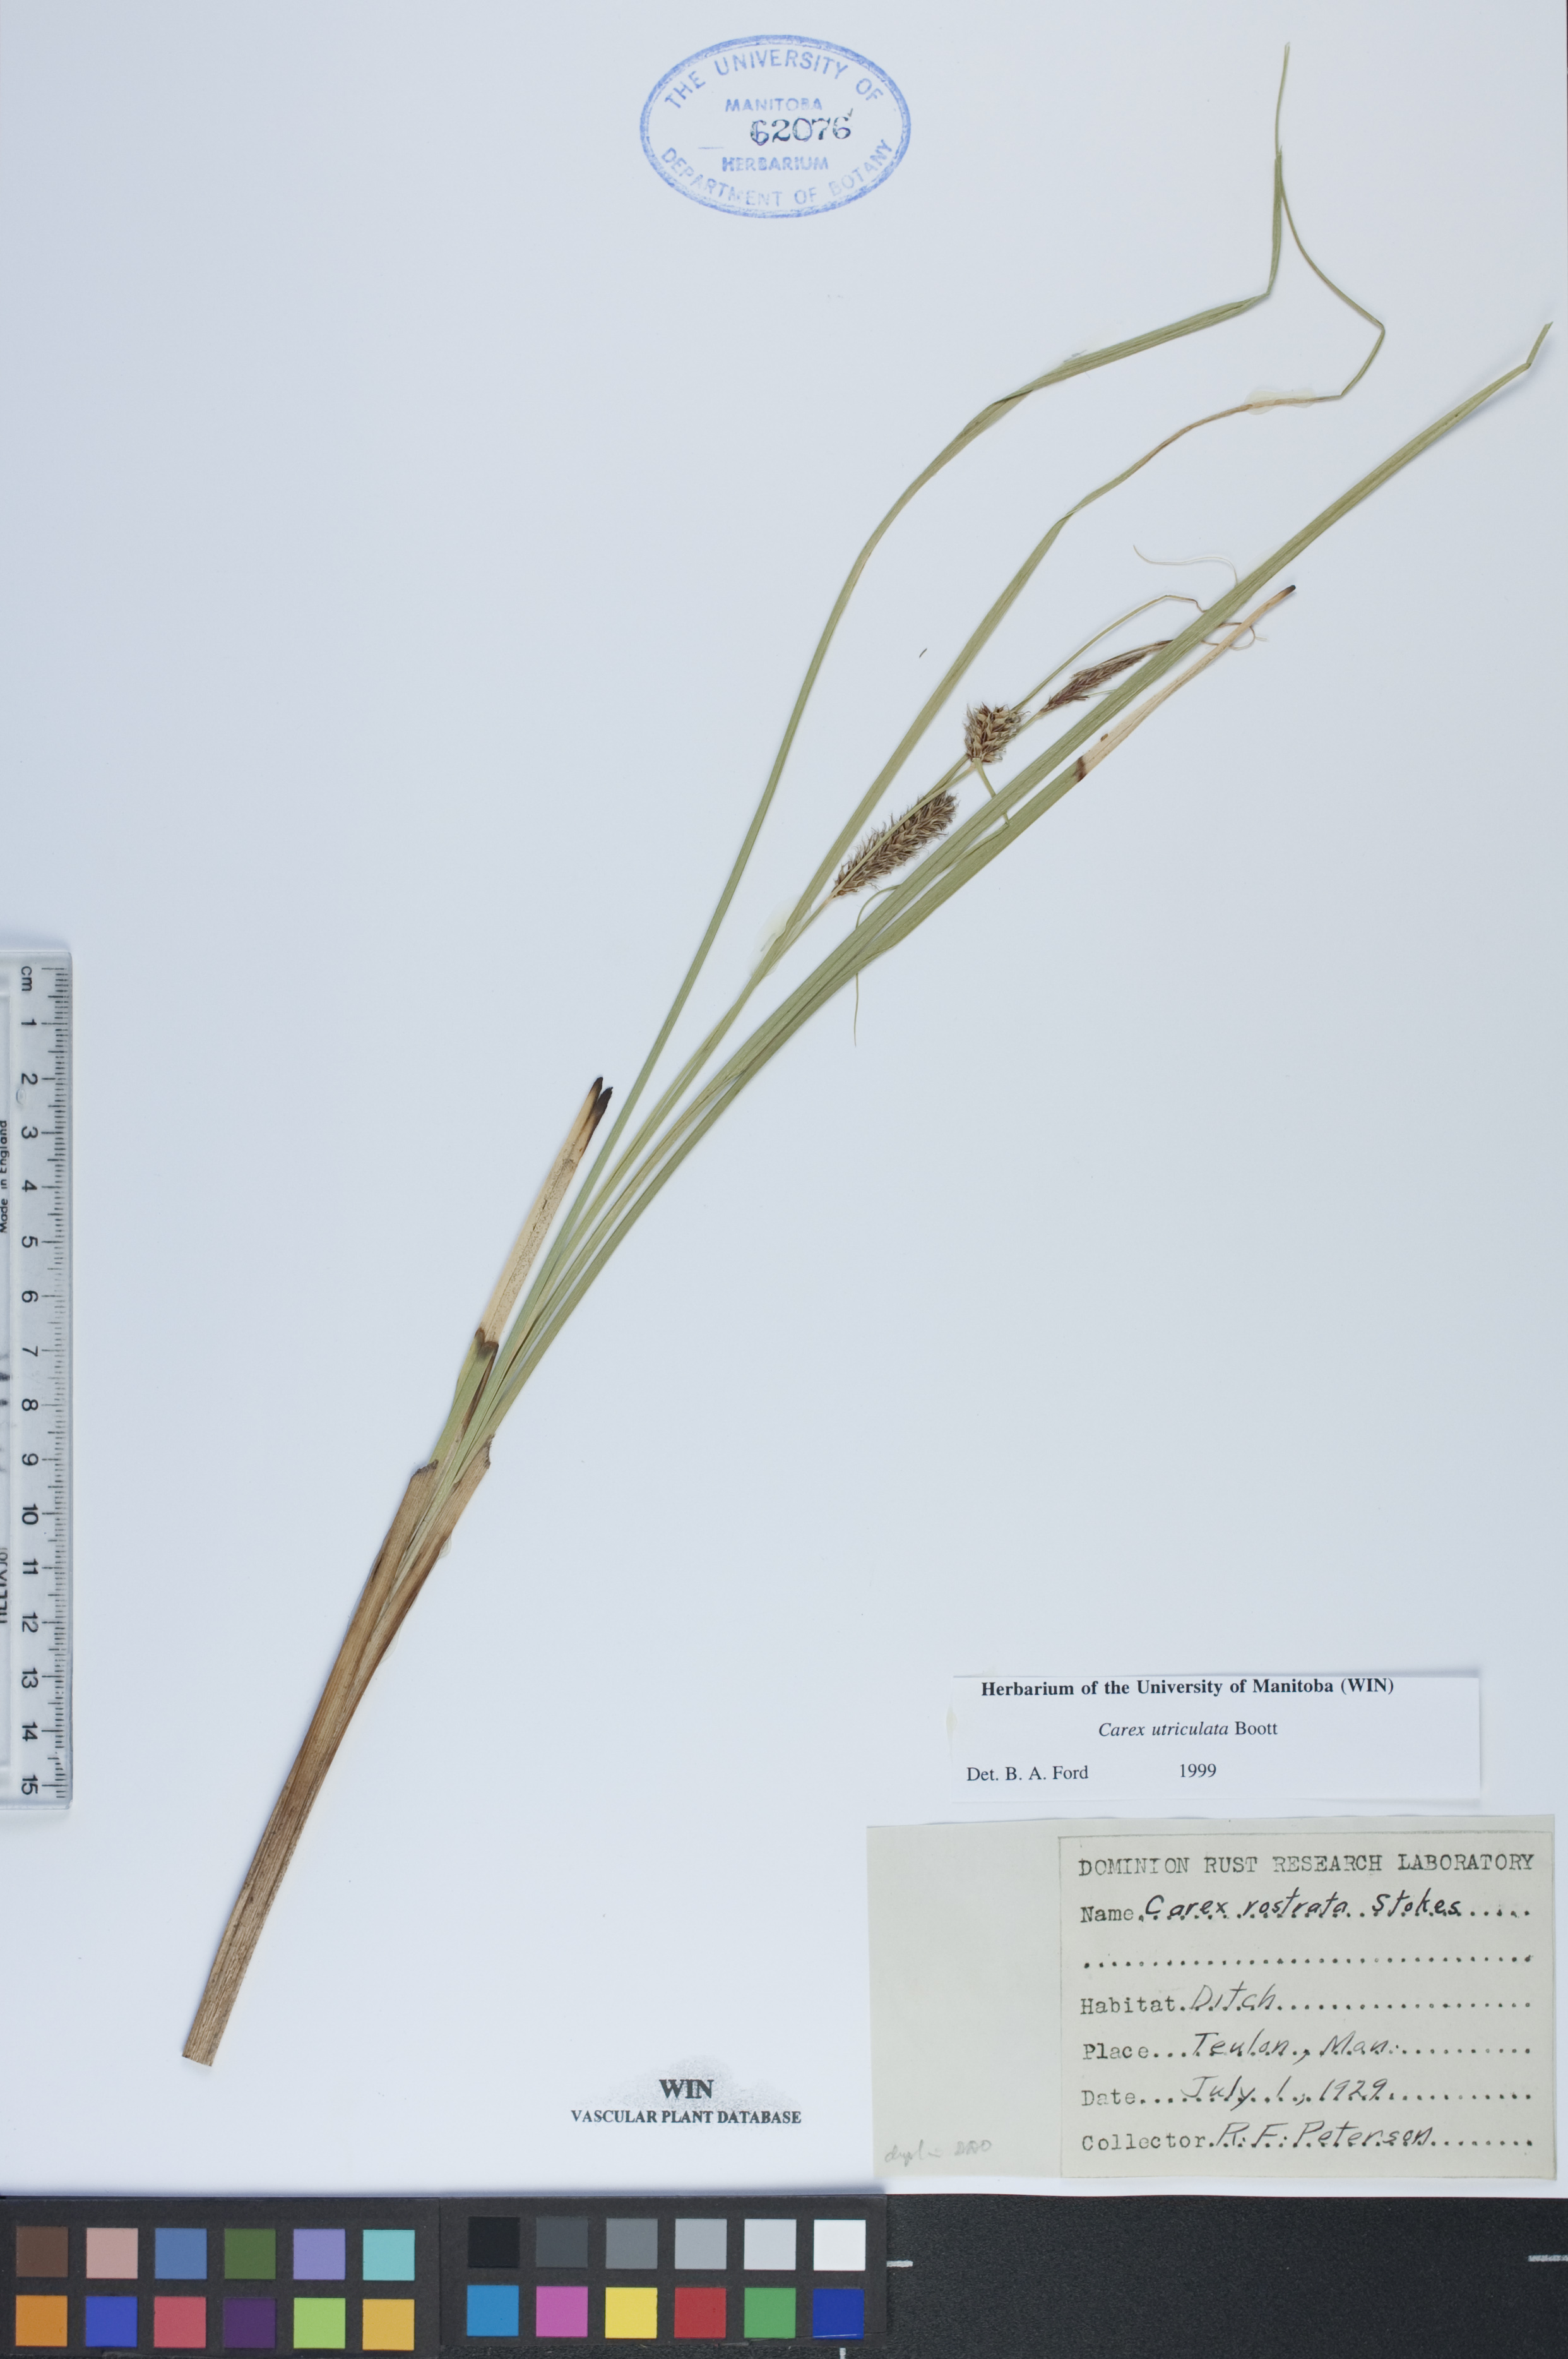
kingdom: Plantae
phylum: Tracheophyta
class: Liliopsida
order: Poales
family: Cyperaceae
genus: Carex
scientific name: Carex utriculata
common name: Beaked sedge
